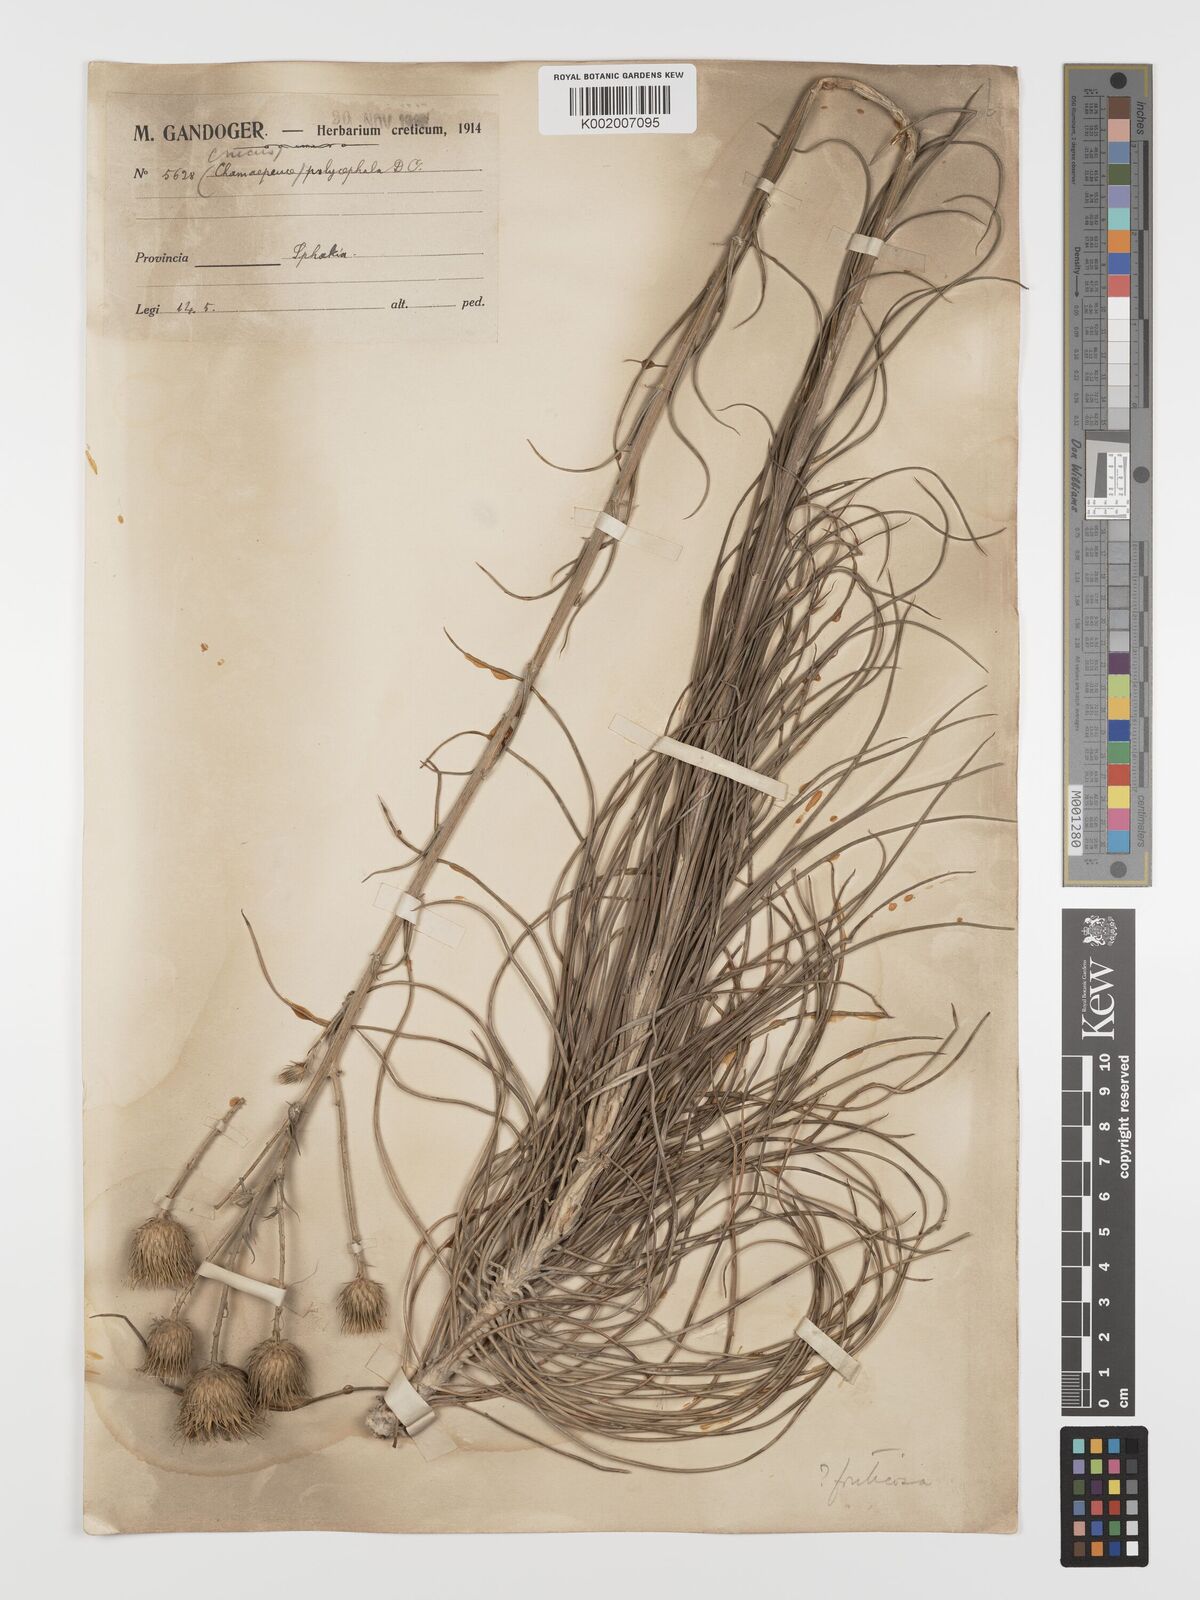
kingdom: Plantae
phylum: Tracheophyta
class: Magnoliopsida
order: Asterales
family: Asteraceae
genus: Ptilostemon
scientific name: Ptilostemon gnaphaloides
